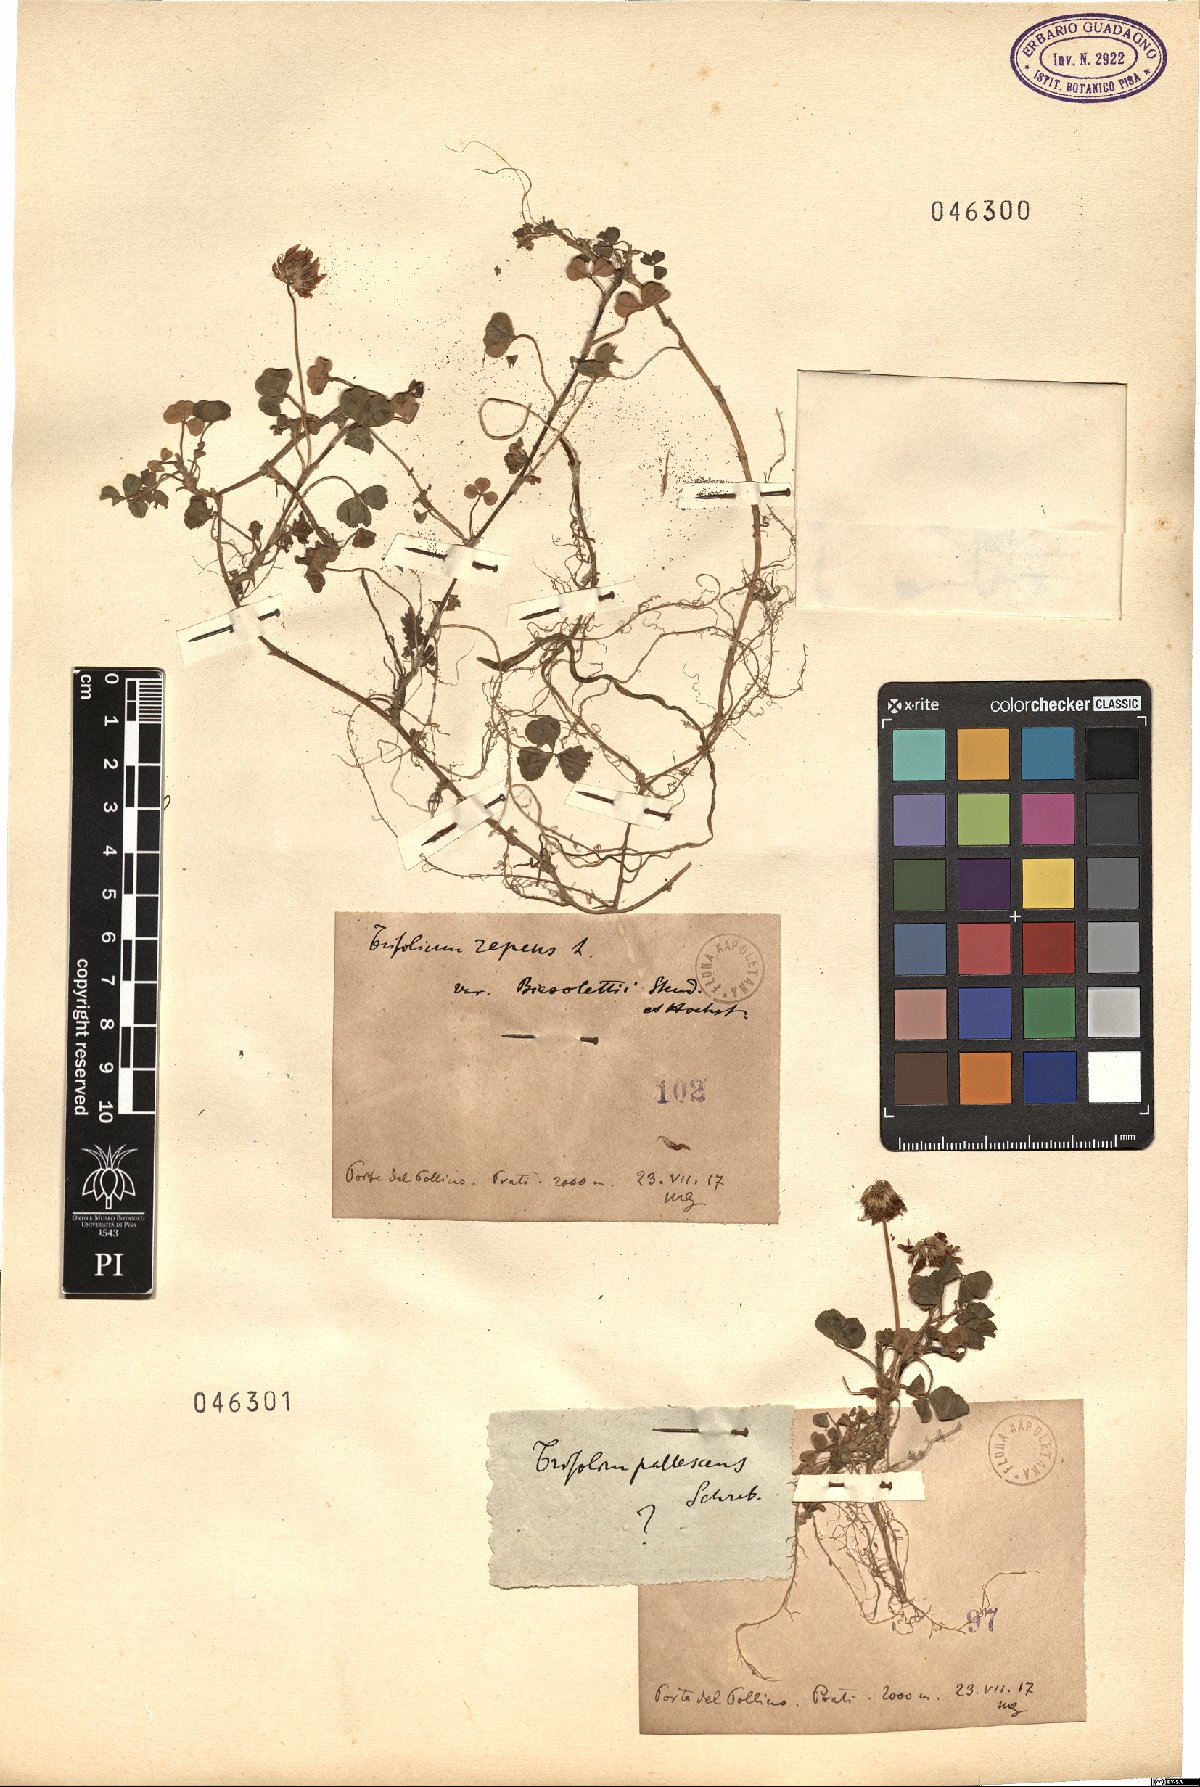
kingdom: Plantae
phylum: Tracheophyta
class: Magnoliopsida
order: Fabales
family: Fabaceae
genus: Trifolium
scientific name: Trifolium repens
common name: White clover
